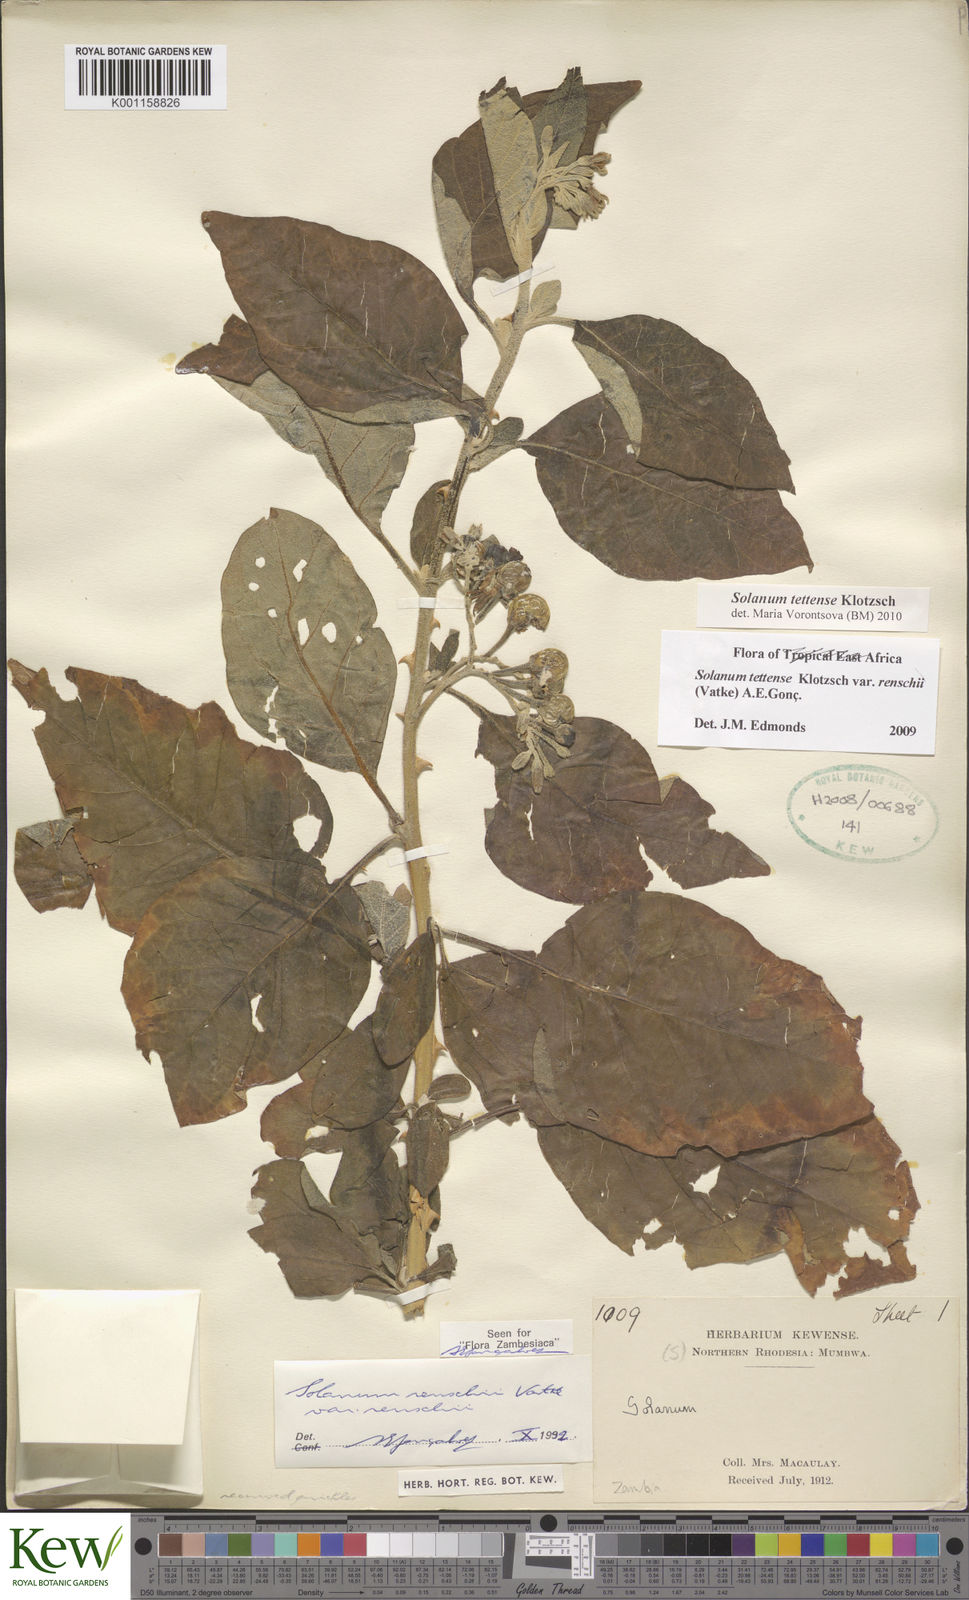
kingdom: Plantae
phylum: Tracheophyta
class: Magnoliopsida
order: Solanales
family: Solanaceae
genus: Solanum
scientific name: Solanum tettense
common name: Mozambique bitter apple
